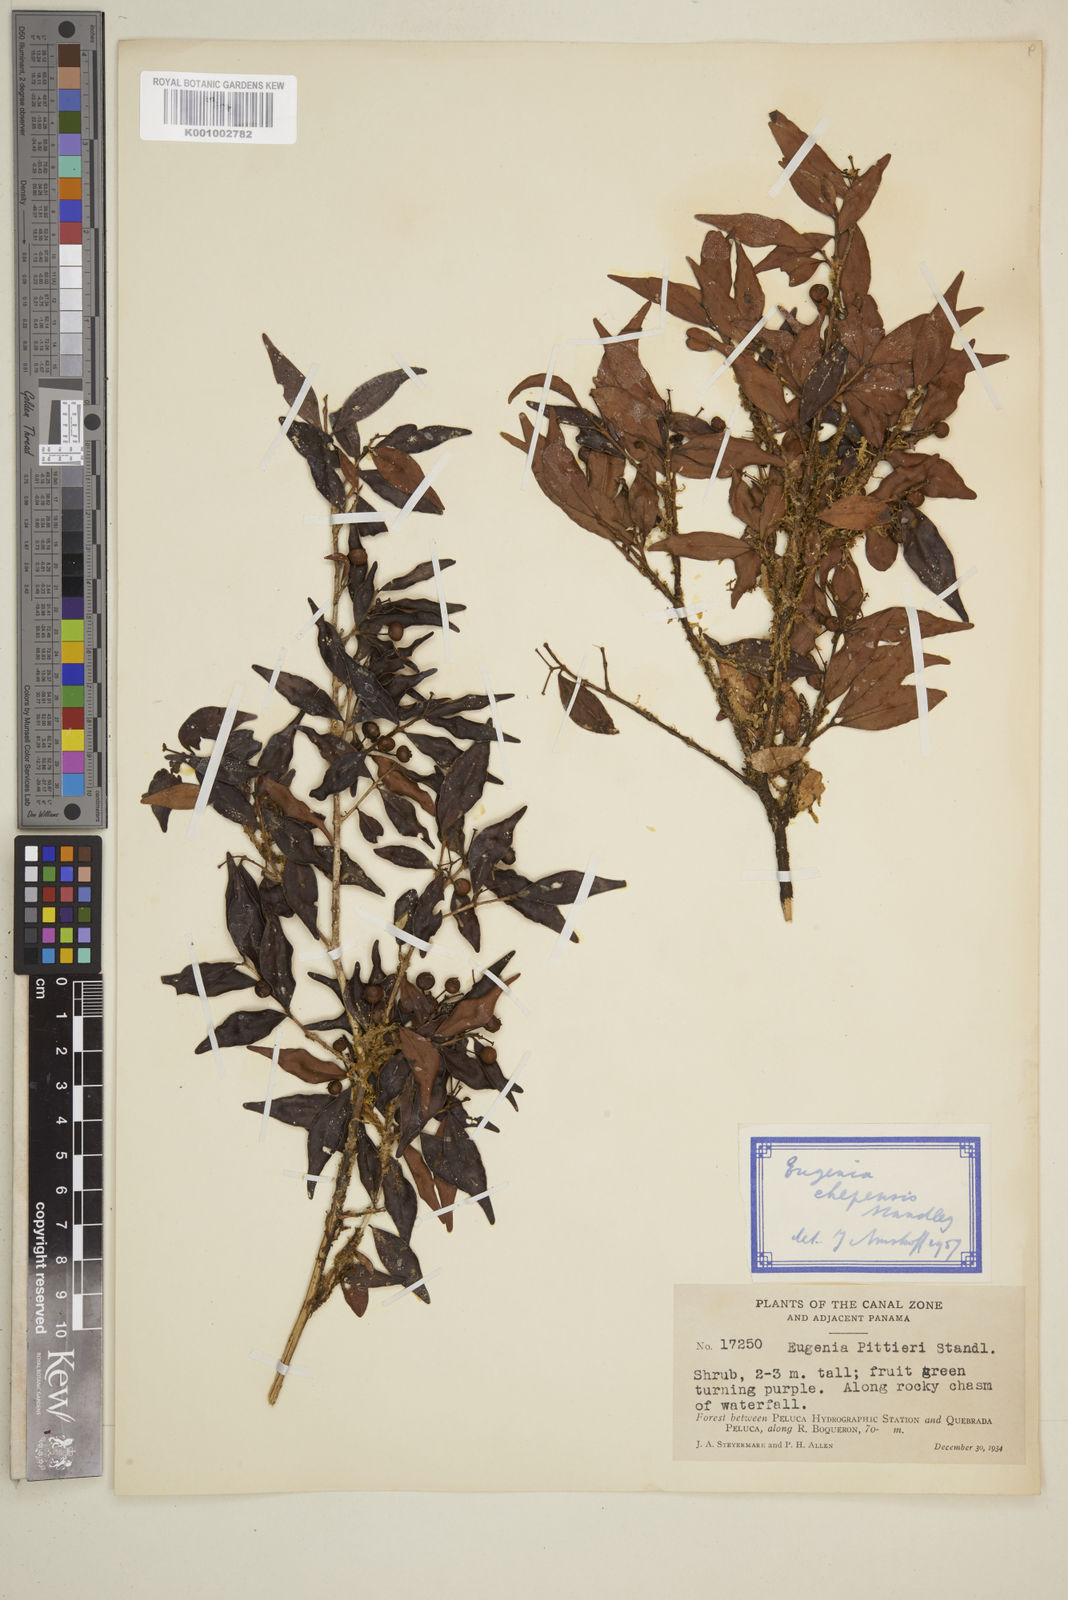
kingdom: Plantae
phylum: Tracheophyta
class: Magnoliopsida
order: Myrtales
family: Myrtaceae
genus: Eugenia
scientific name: Eugenia chepensis
